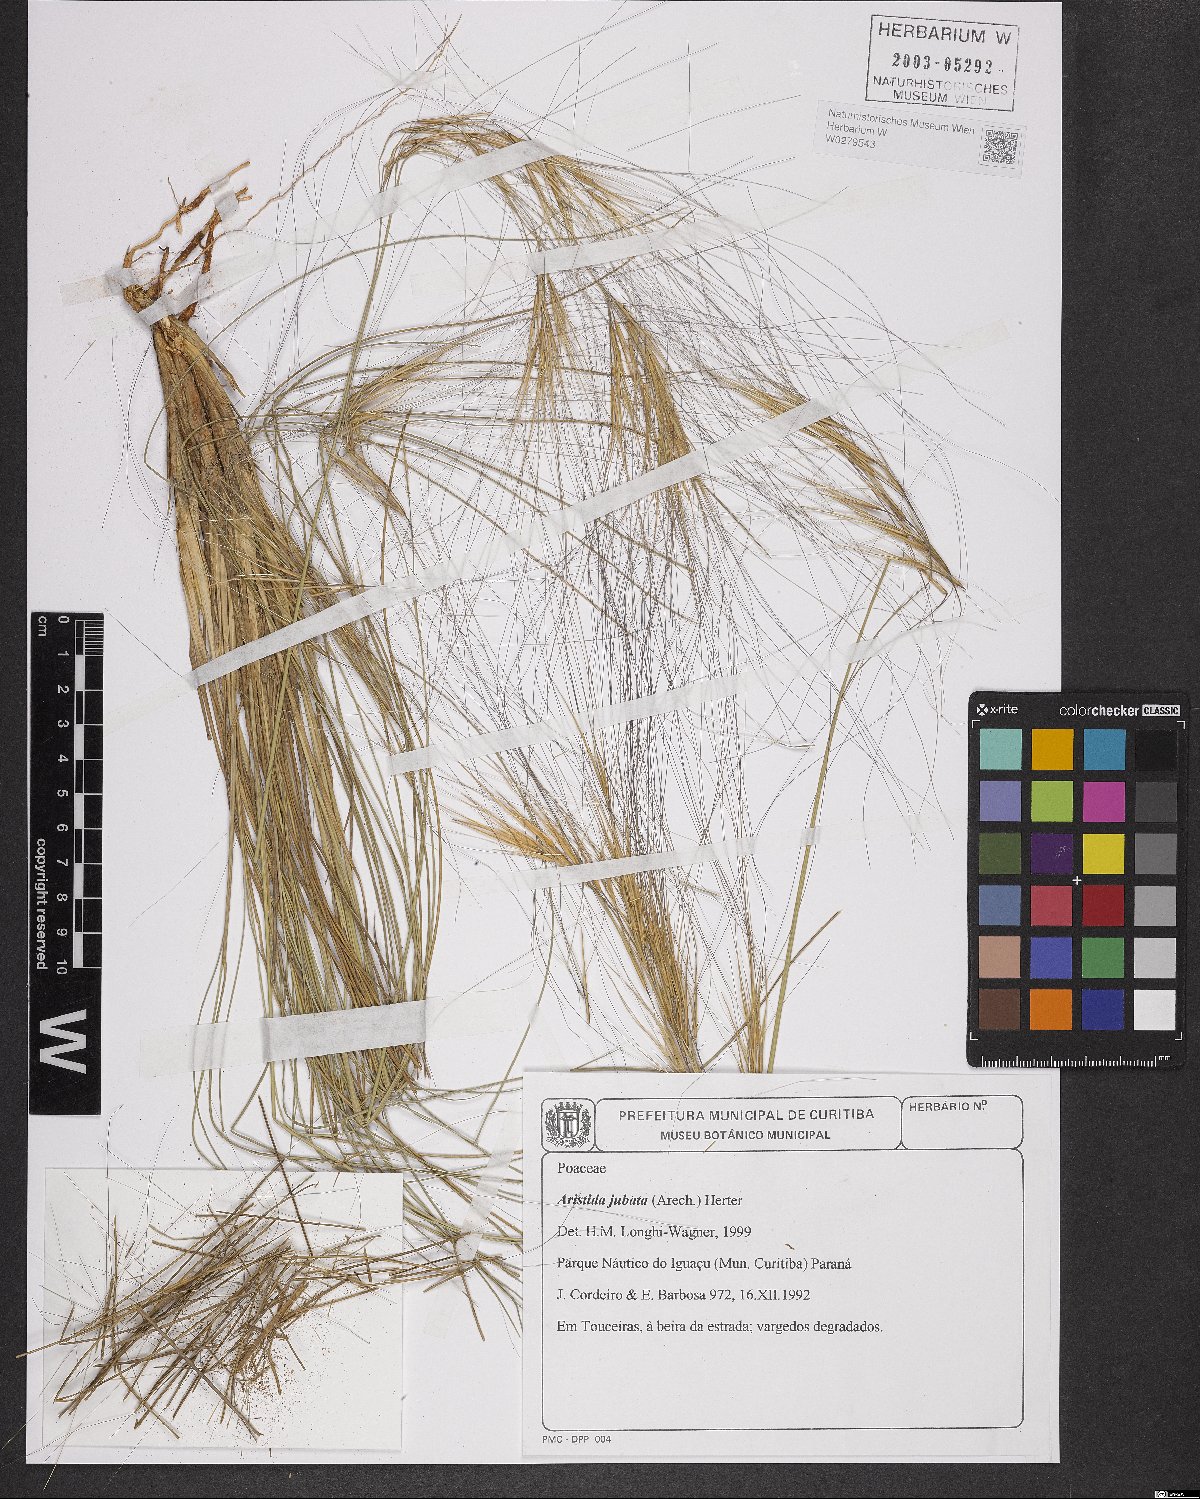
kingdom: Plantae
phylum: Tracheophyta
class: Liliopsida
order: Poales
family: Poaceae
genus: Aristida
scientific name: Aristida jubata
